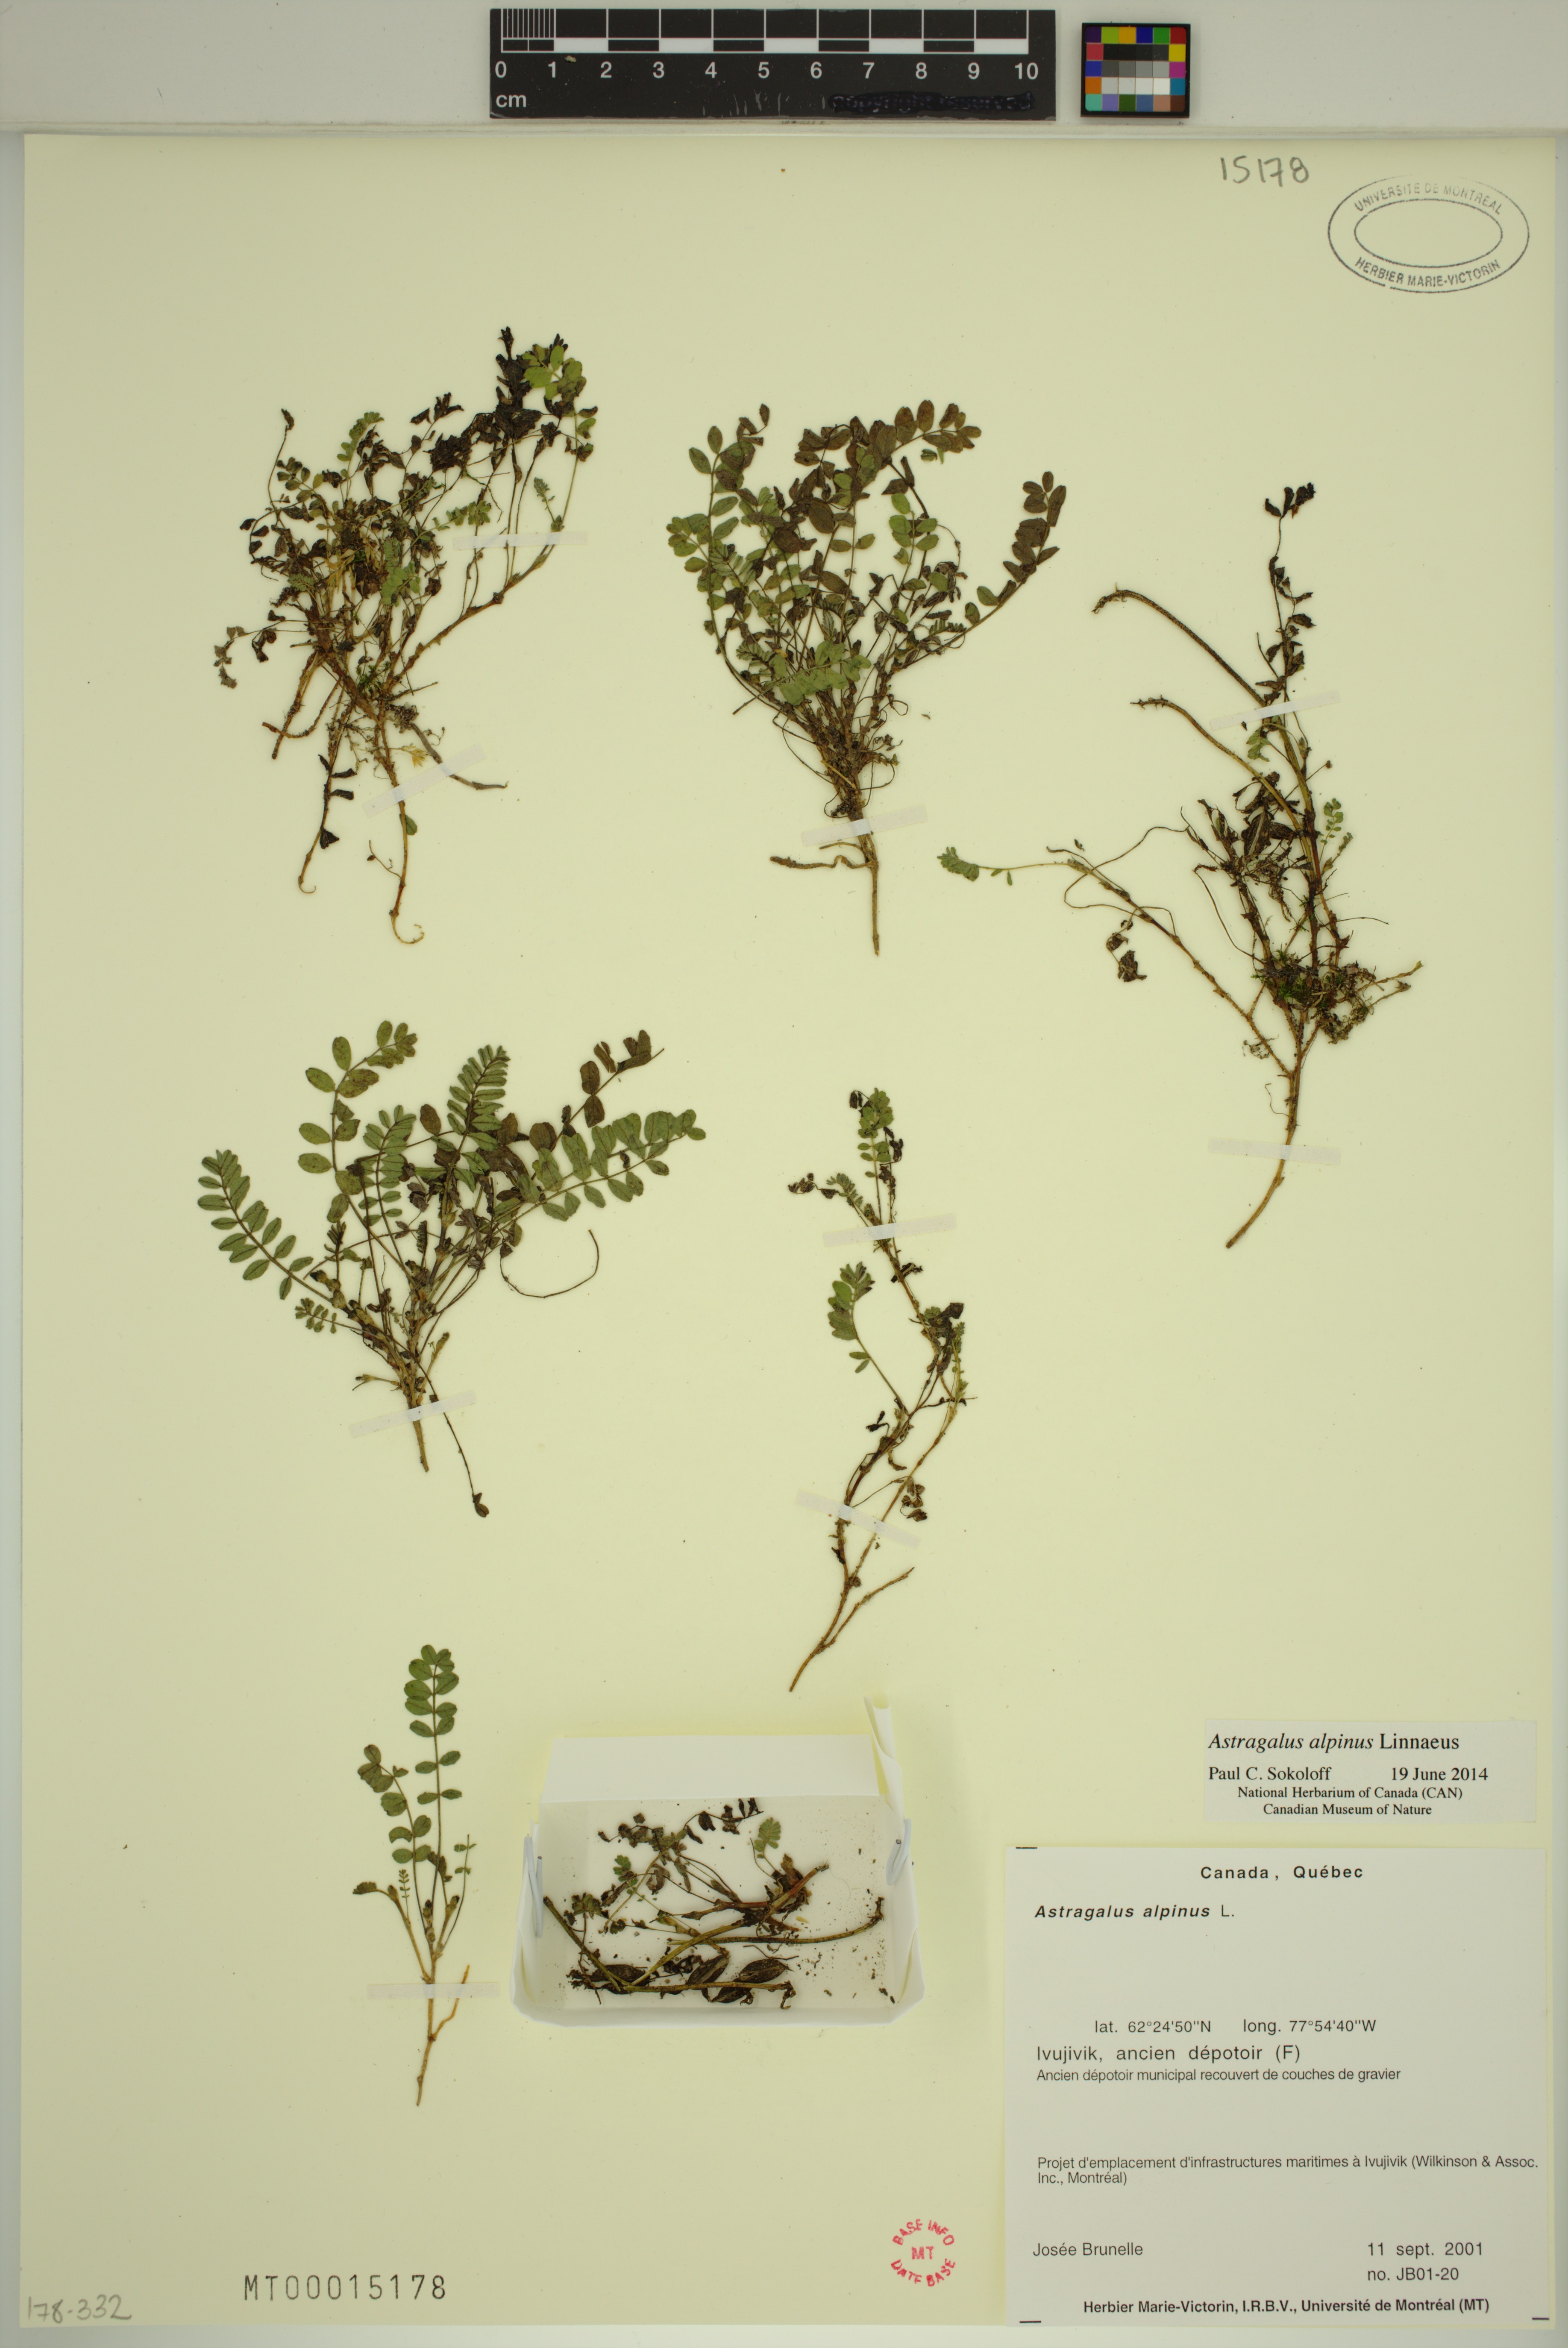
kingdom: Plantae
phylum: Tracheophyta
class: Magnoliopsida
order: Fabales
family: Fabaceae
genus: Astragalus
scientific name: Astragalus alpinus
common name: Alpine milk-vetch
